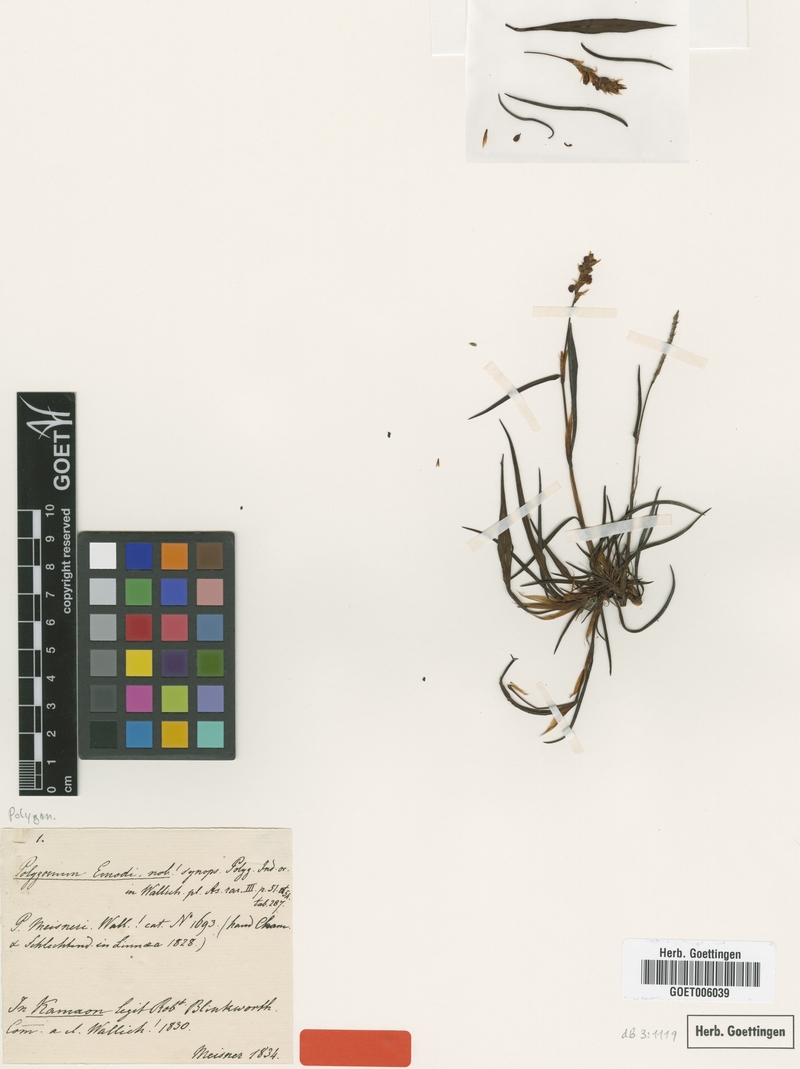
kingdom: Plantae
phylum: Tracheophyta
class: Magnoliopsida
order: Caryophyllales
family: Polygonaceae
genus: Bistorta
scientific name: Bistorta emodi
